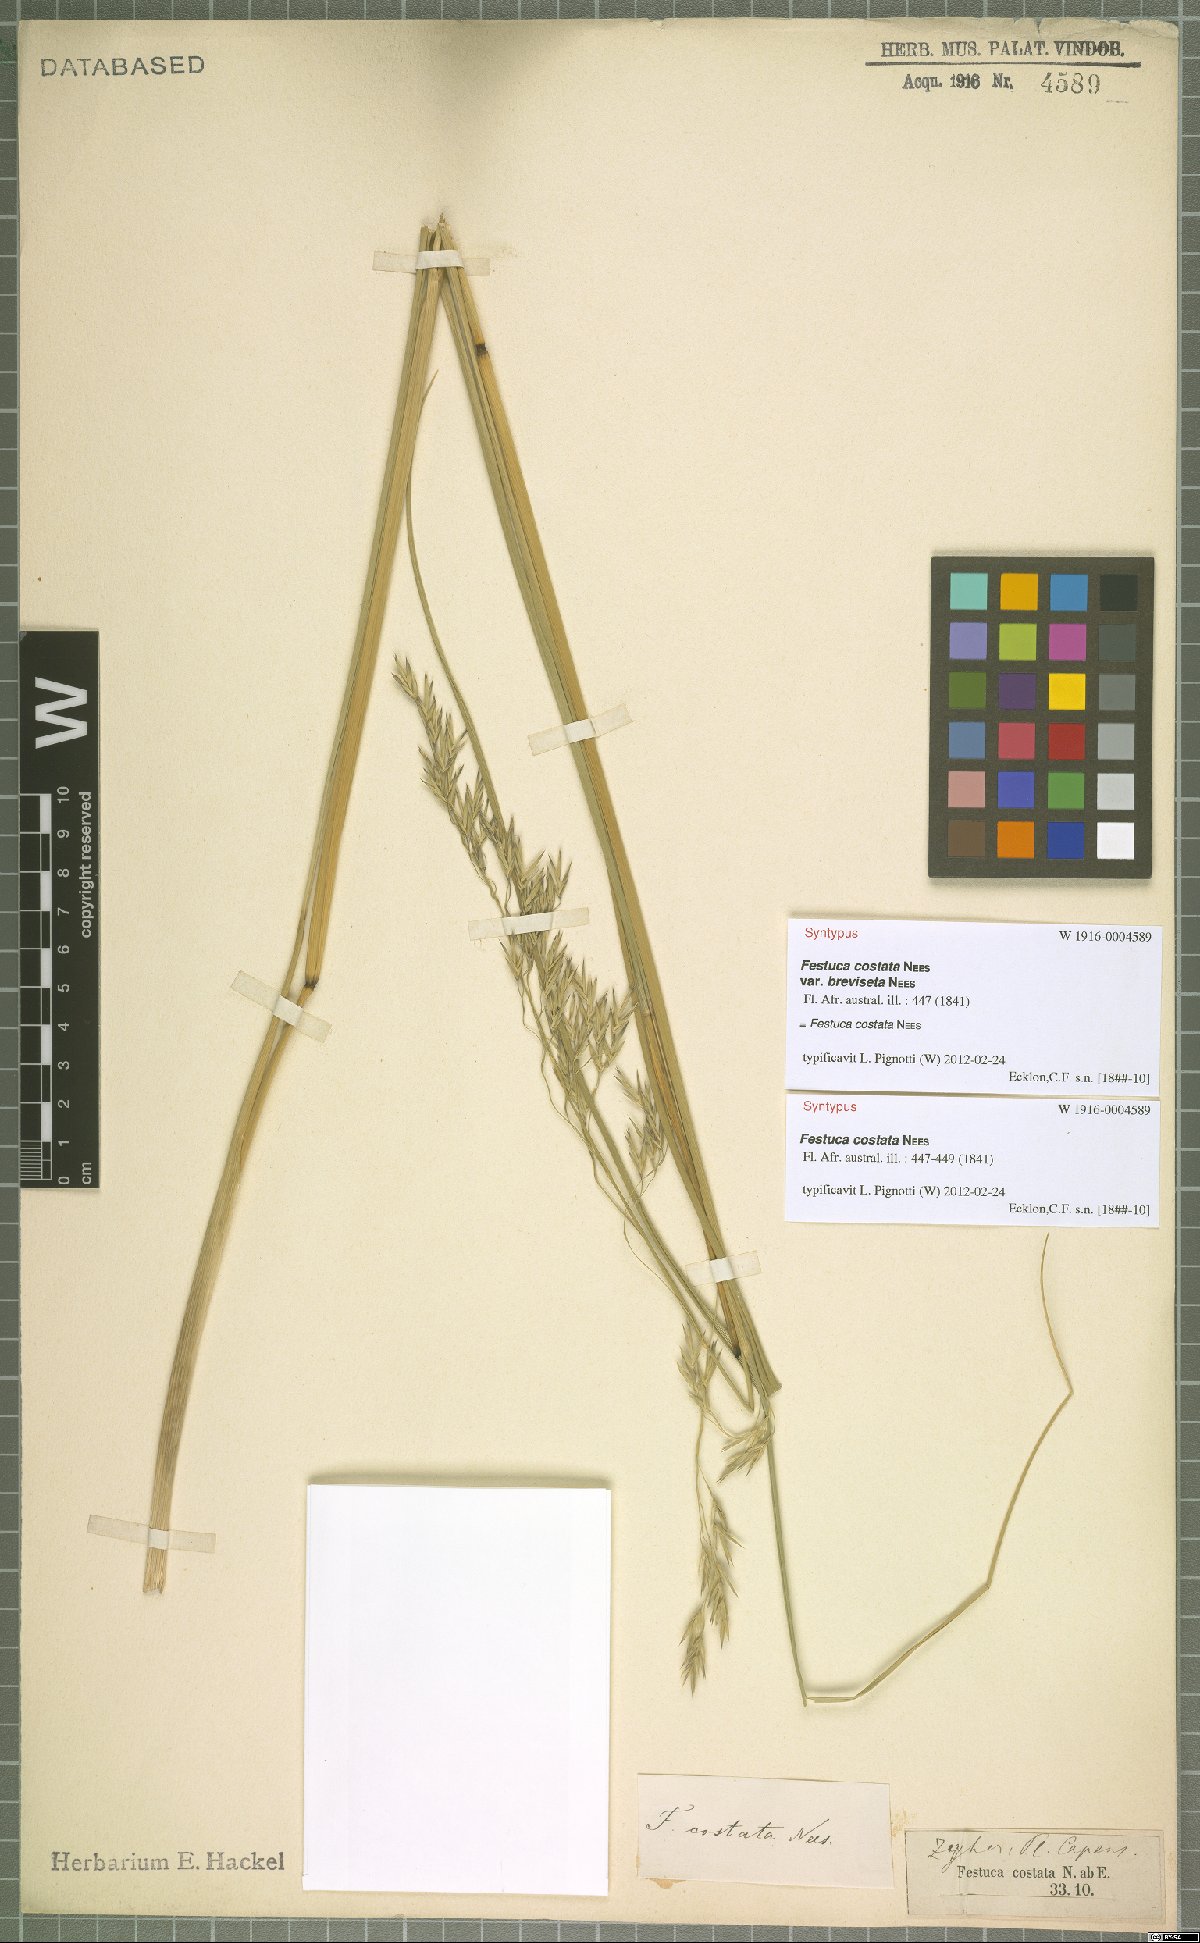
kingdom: Plantae
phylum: Tracheophyta
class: Liliopsida
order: Poales
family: Poaceae
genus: Festuca
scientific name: Festuca costata
